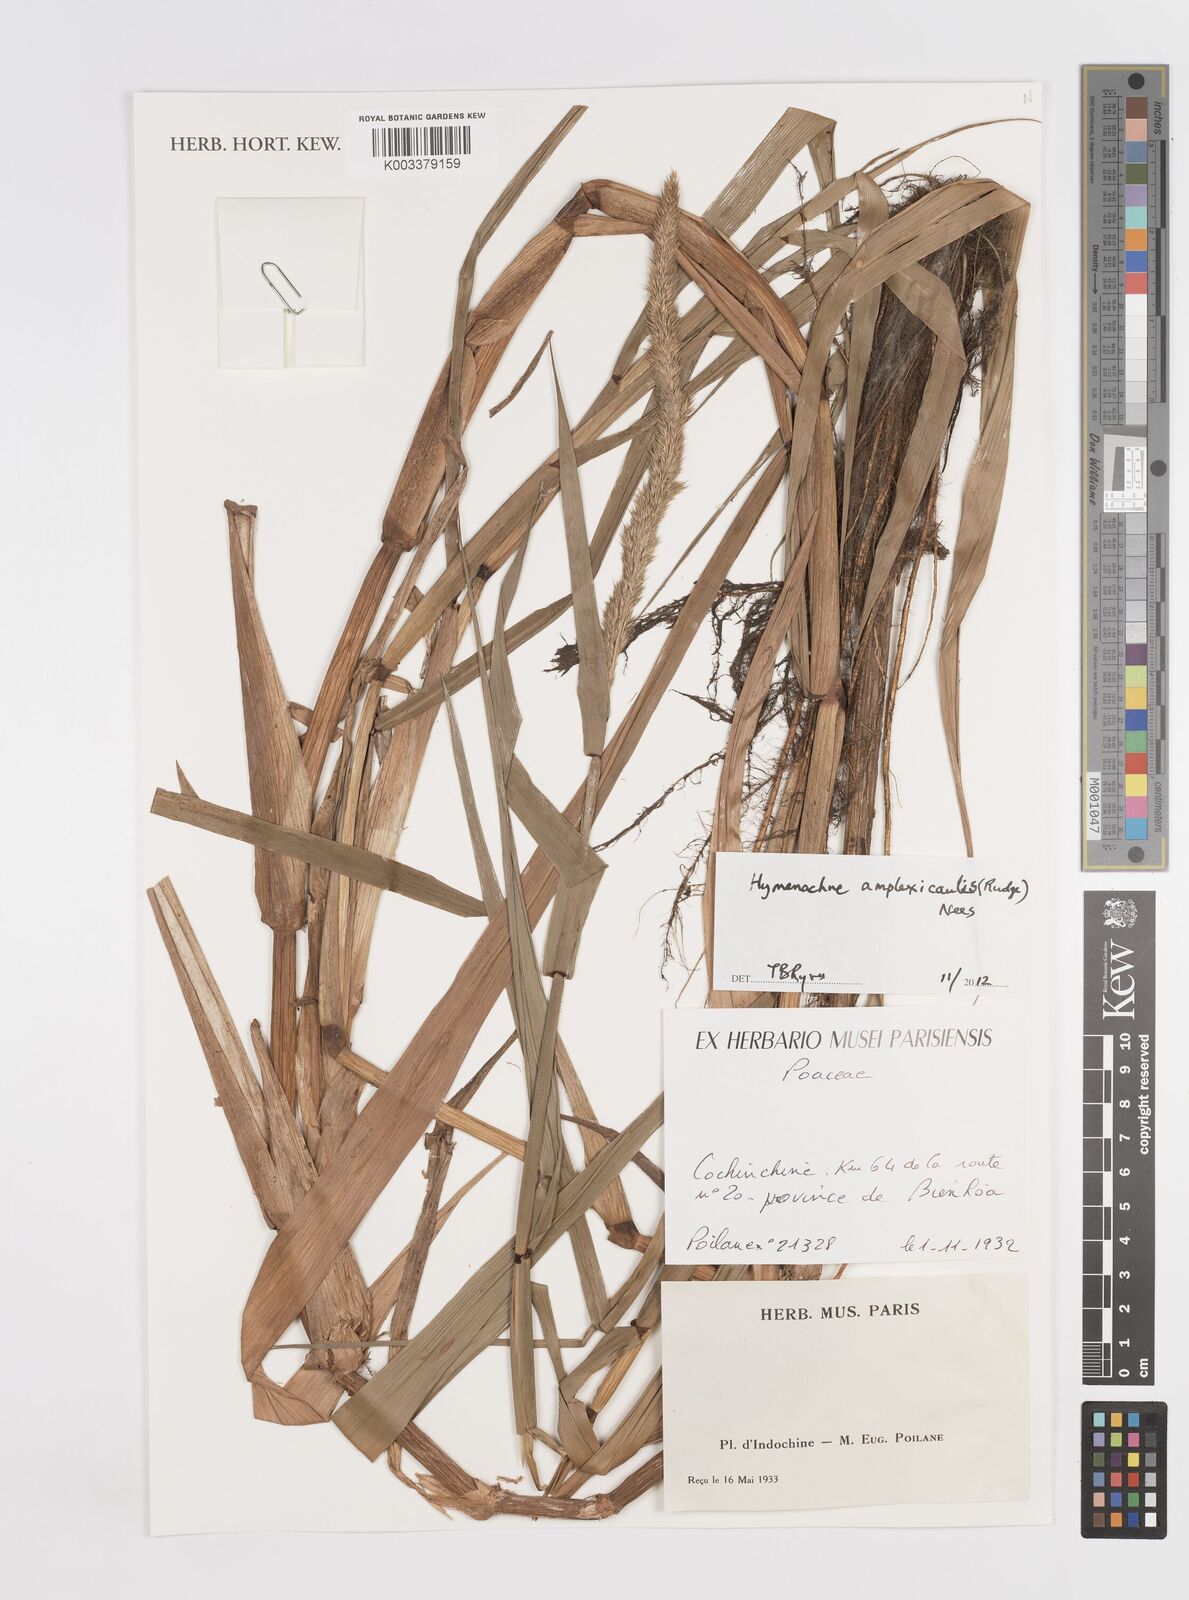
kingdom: Plantae
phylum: Tracheophyta
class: Liliopsida
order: Poales
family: Poaceae
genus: Hymenachne
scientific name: Hymenachne amplexicaulis
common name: Olive hymenachne
